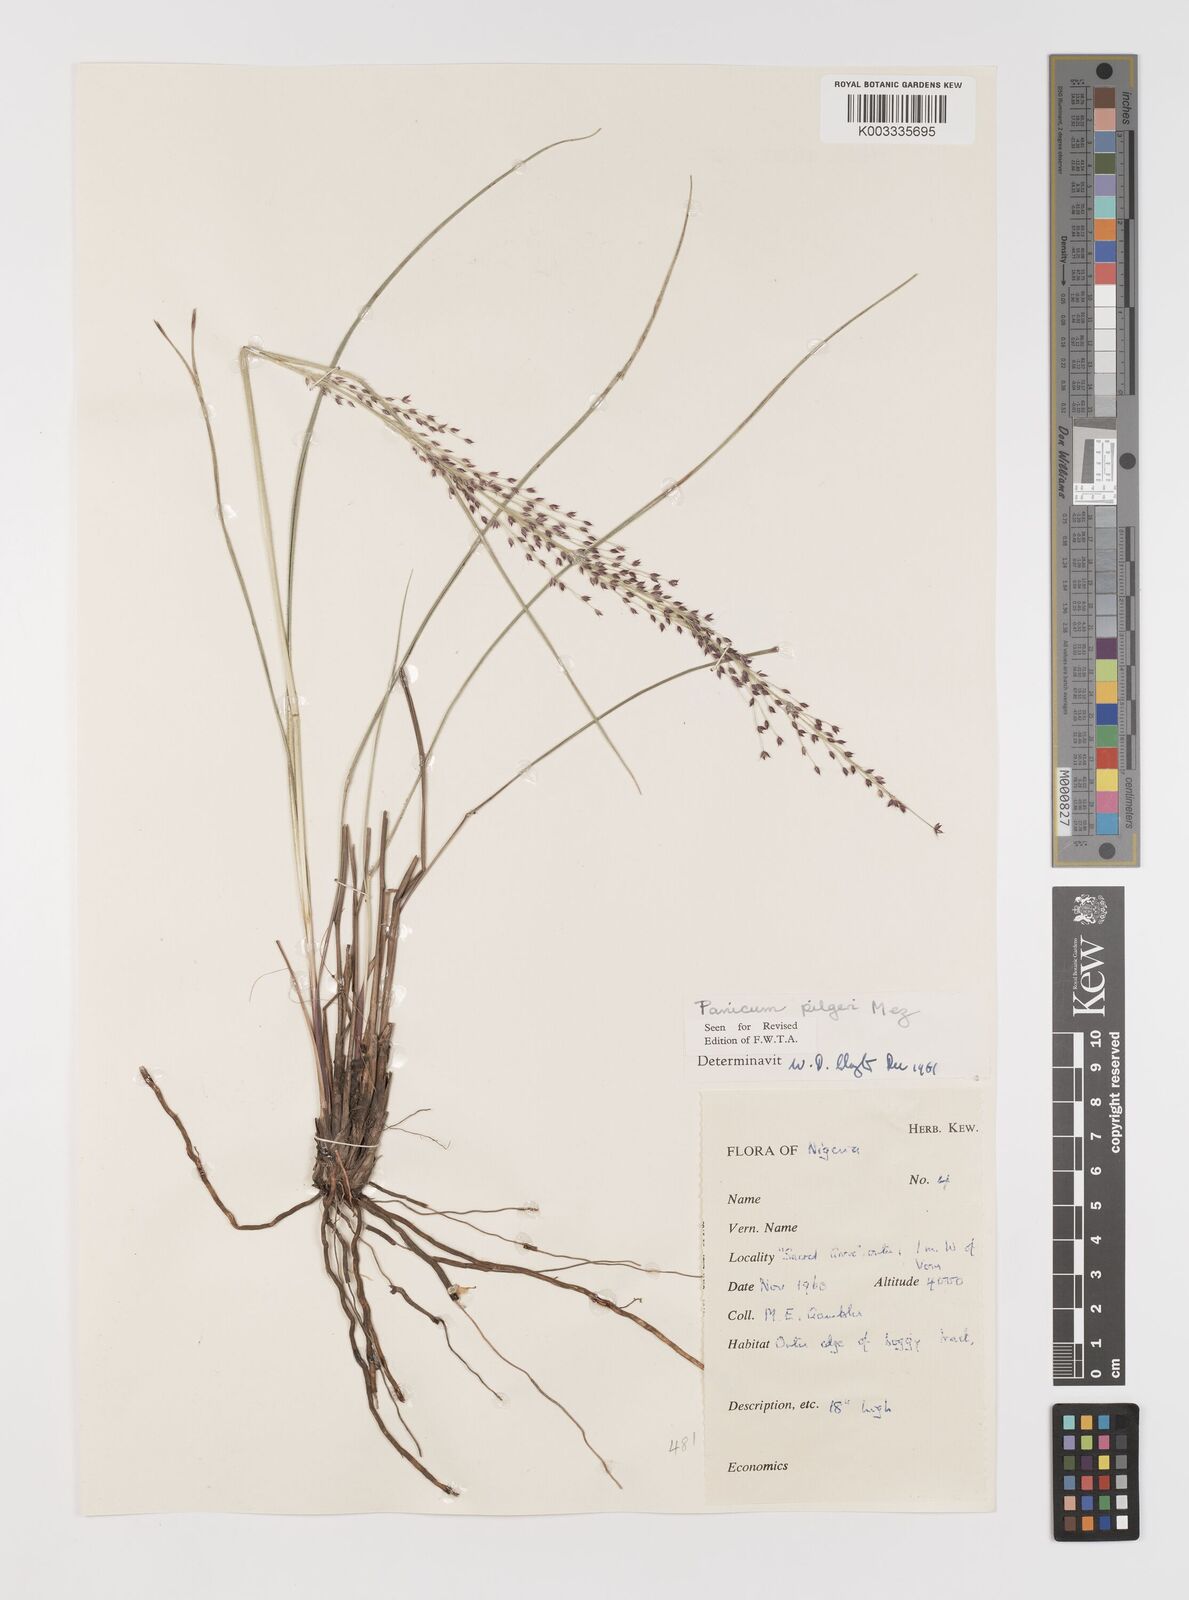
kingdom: Plantae
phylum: Tracheophyta
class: Liliopsida
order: Poales
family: Poaceae
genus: Panicum
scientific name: Panicum
